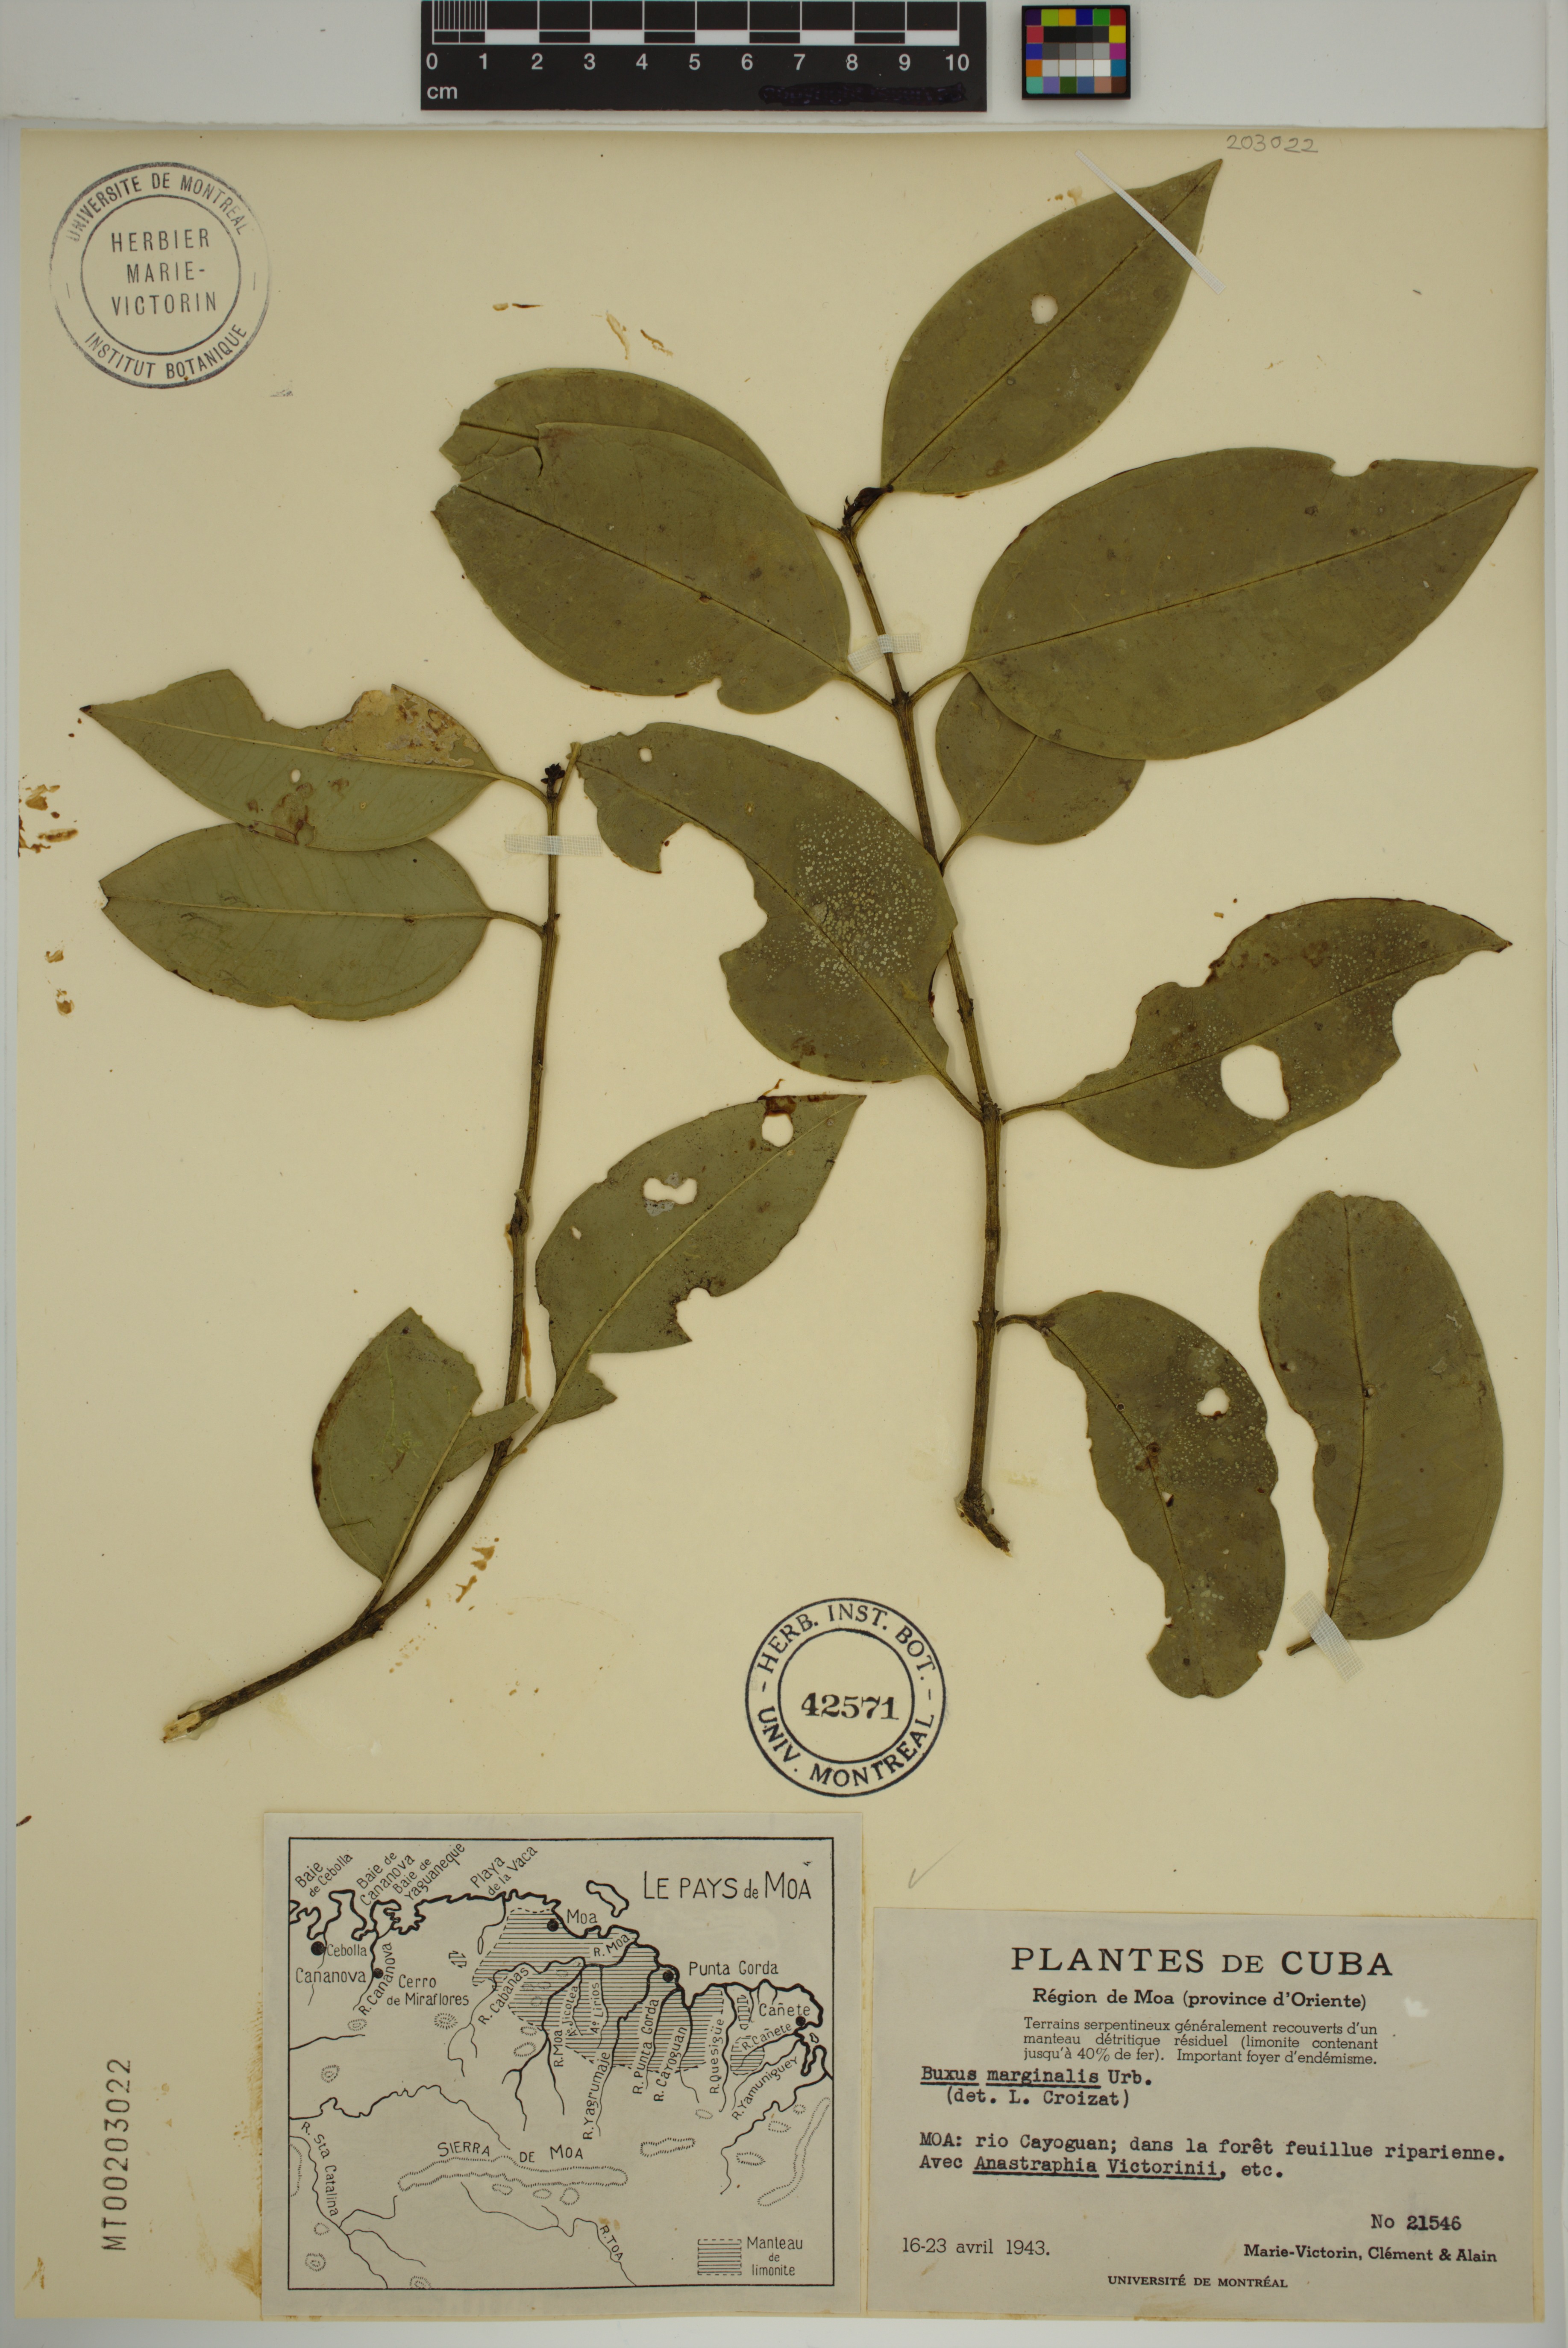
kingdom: Plantae
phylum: Tracheophyta
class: Magnoliopsida
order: Buxales
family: Buxaceae
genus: Buxus
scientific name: Buxus marginalis
